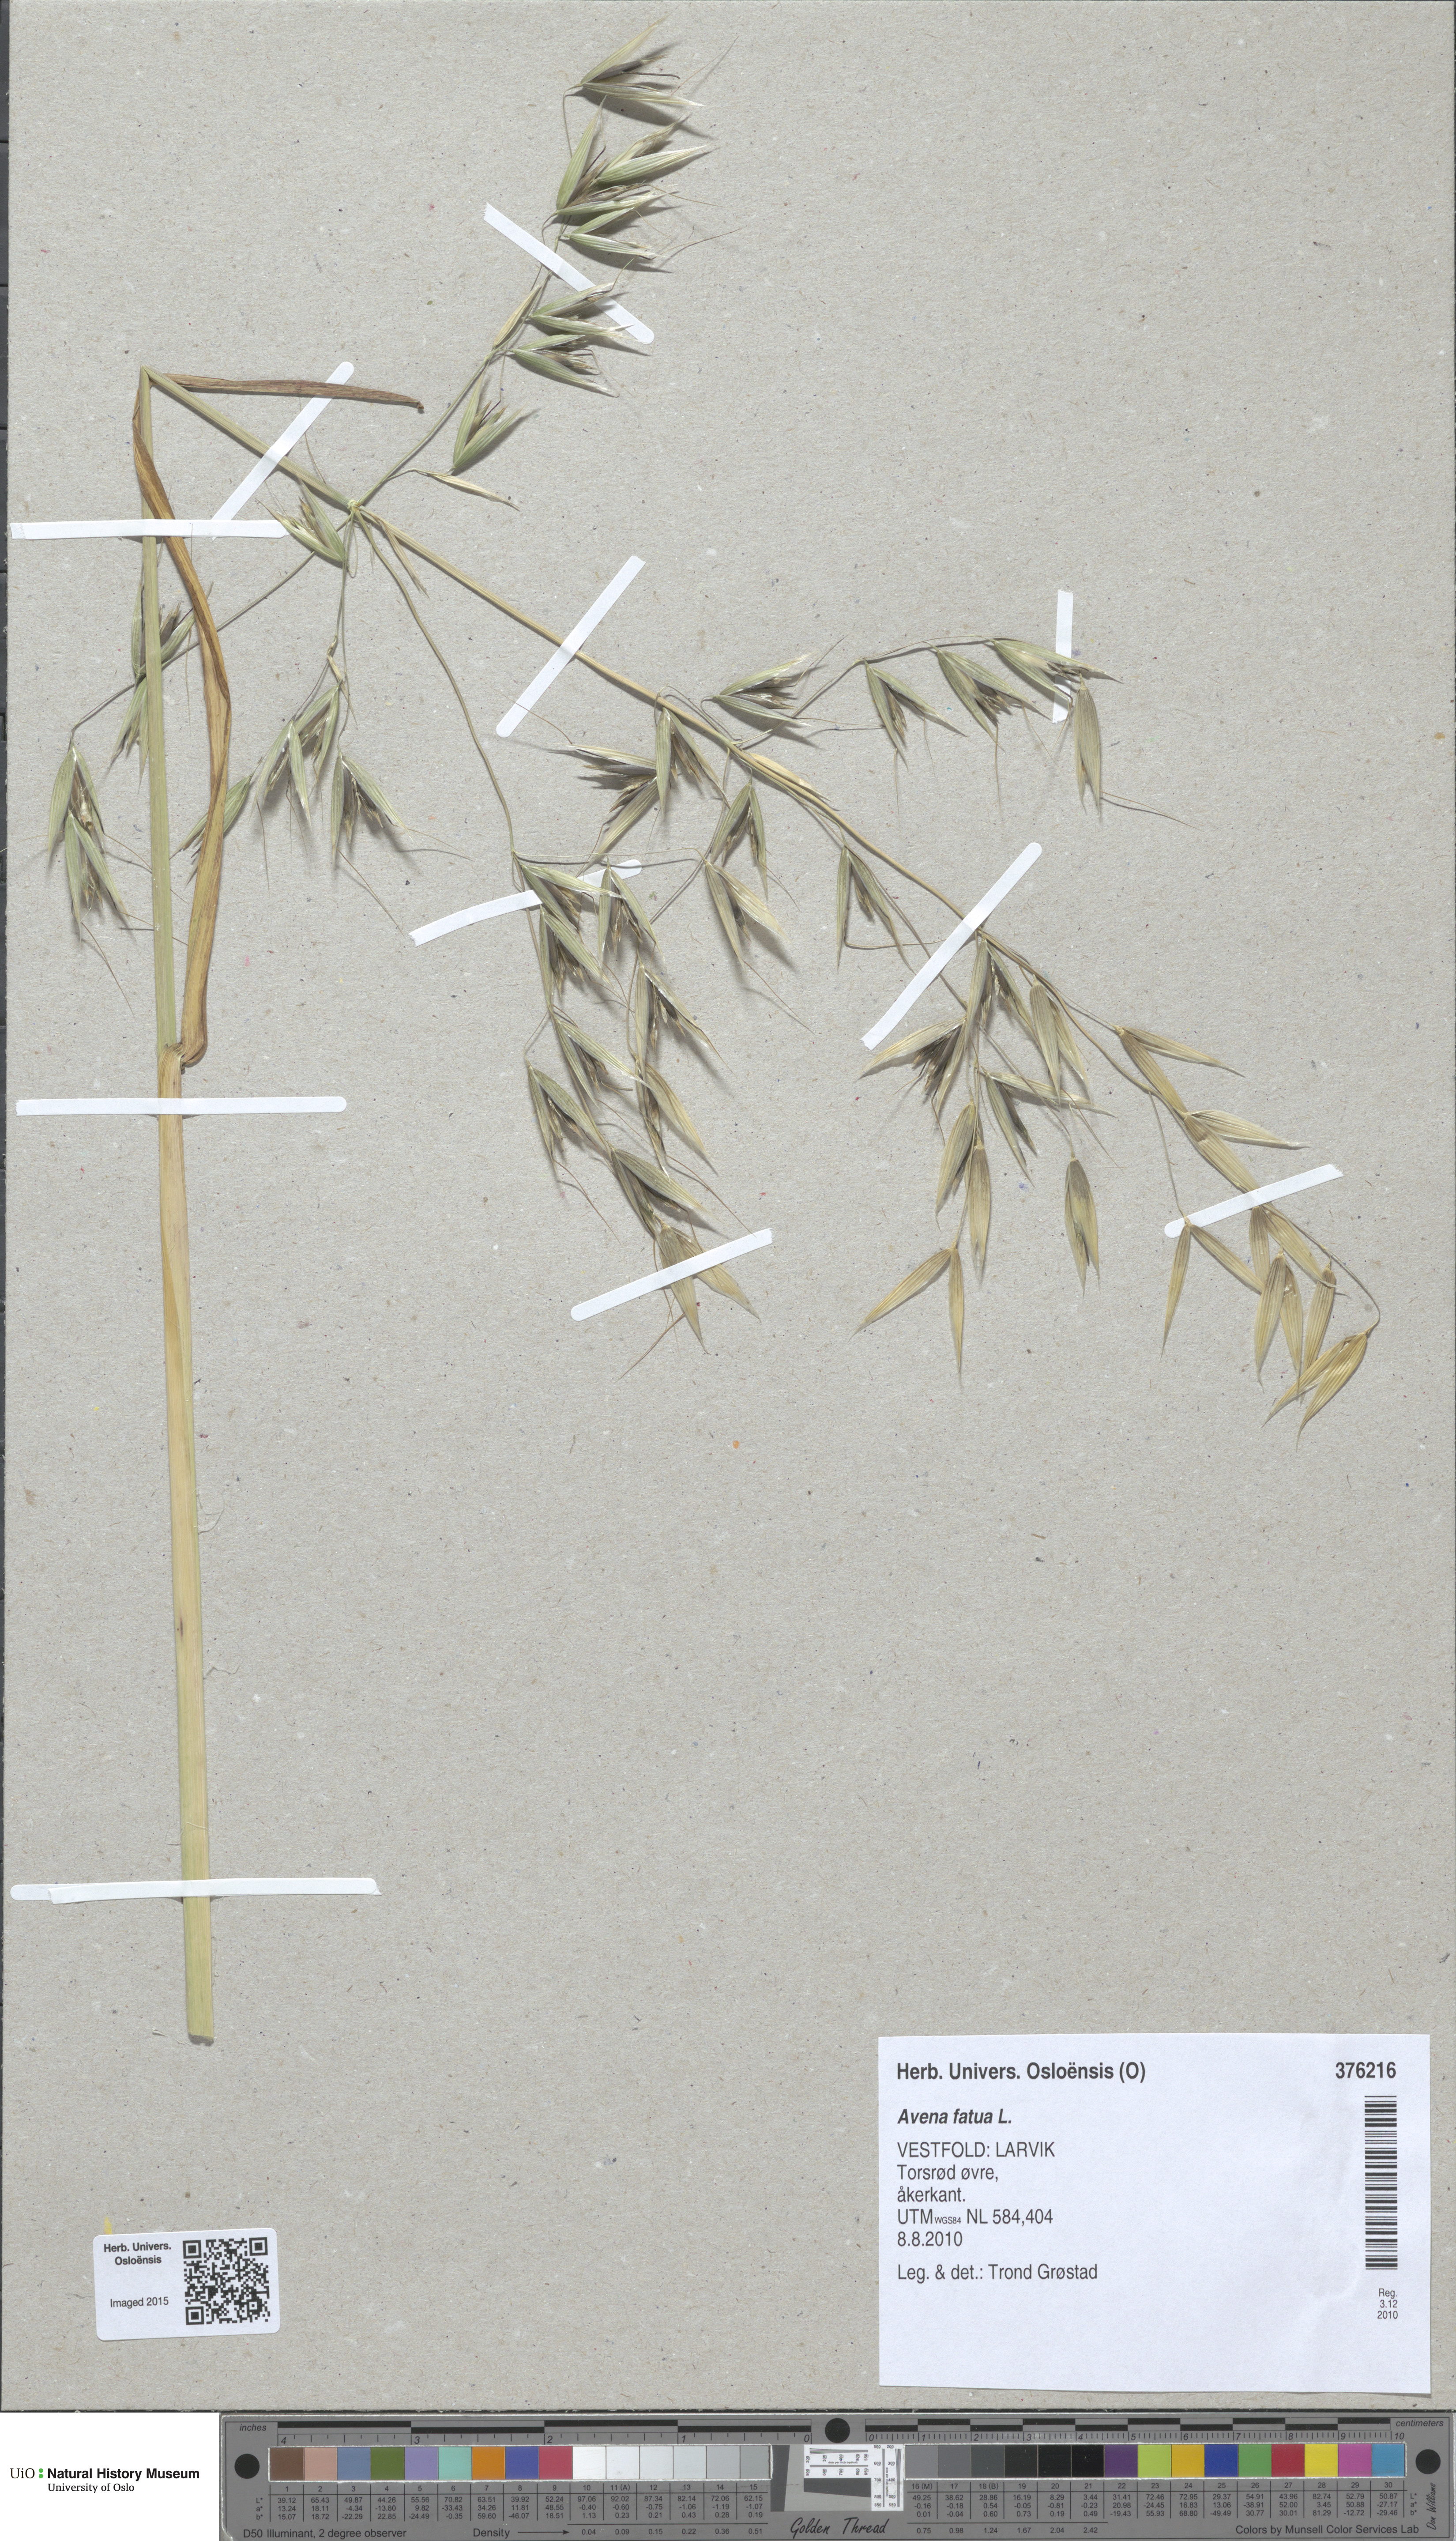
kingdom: Plantae
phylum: Tracheophyta
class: Liliopsida
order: Poales
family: Poaceae
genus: Avena
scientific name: Avena fatua
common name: Wild oat
